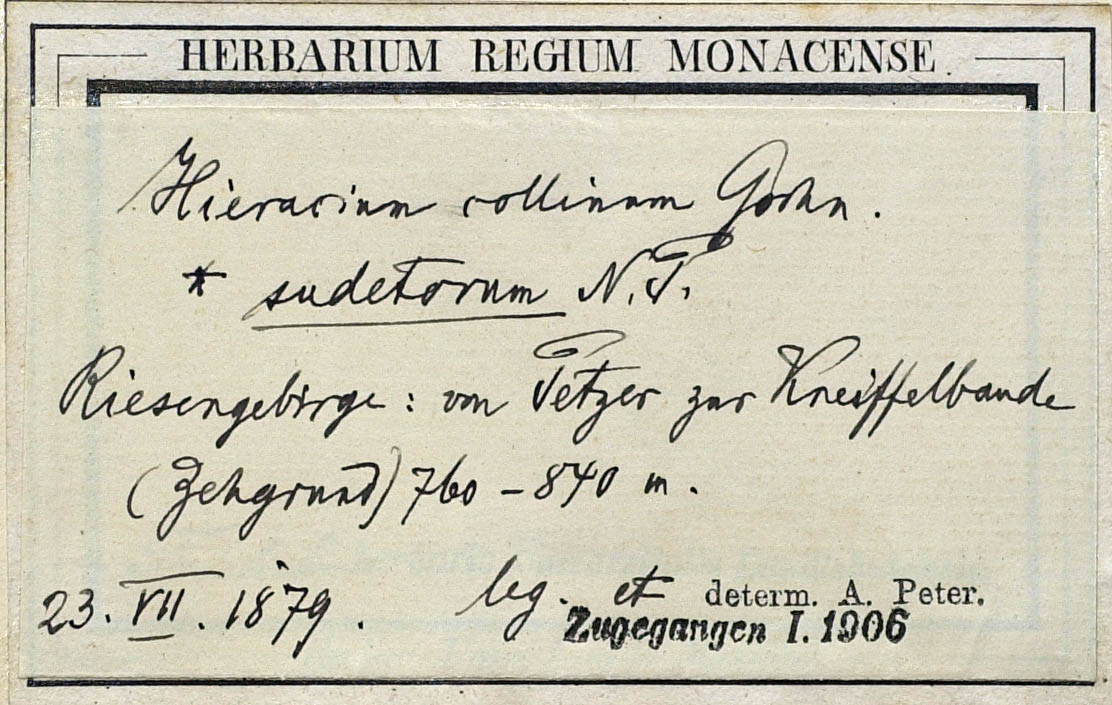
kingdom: Plantae
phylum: Tracheophyta
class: Magnoliopsida
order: Asterales
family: Asteraceae
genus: Pilosella
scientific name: Pilosella caespitosa
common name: Yellow fox-and-cubs
